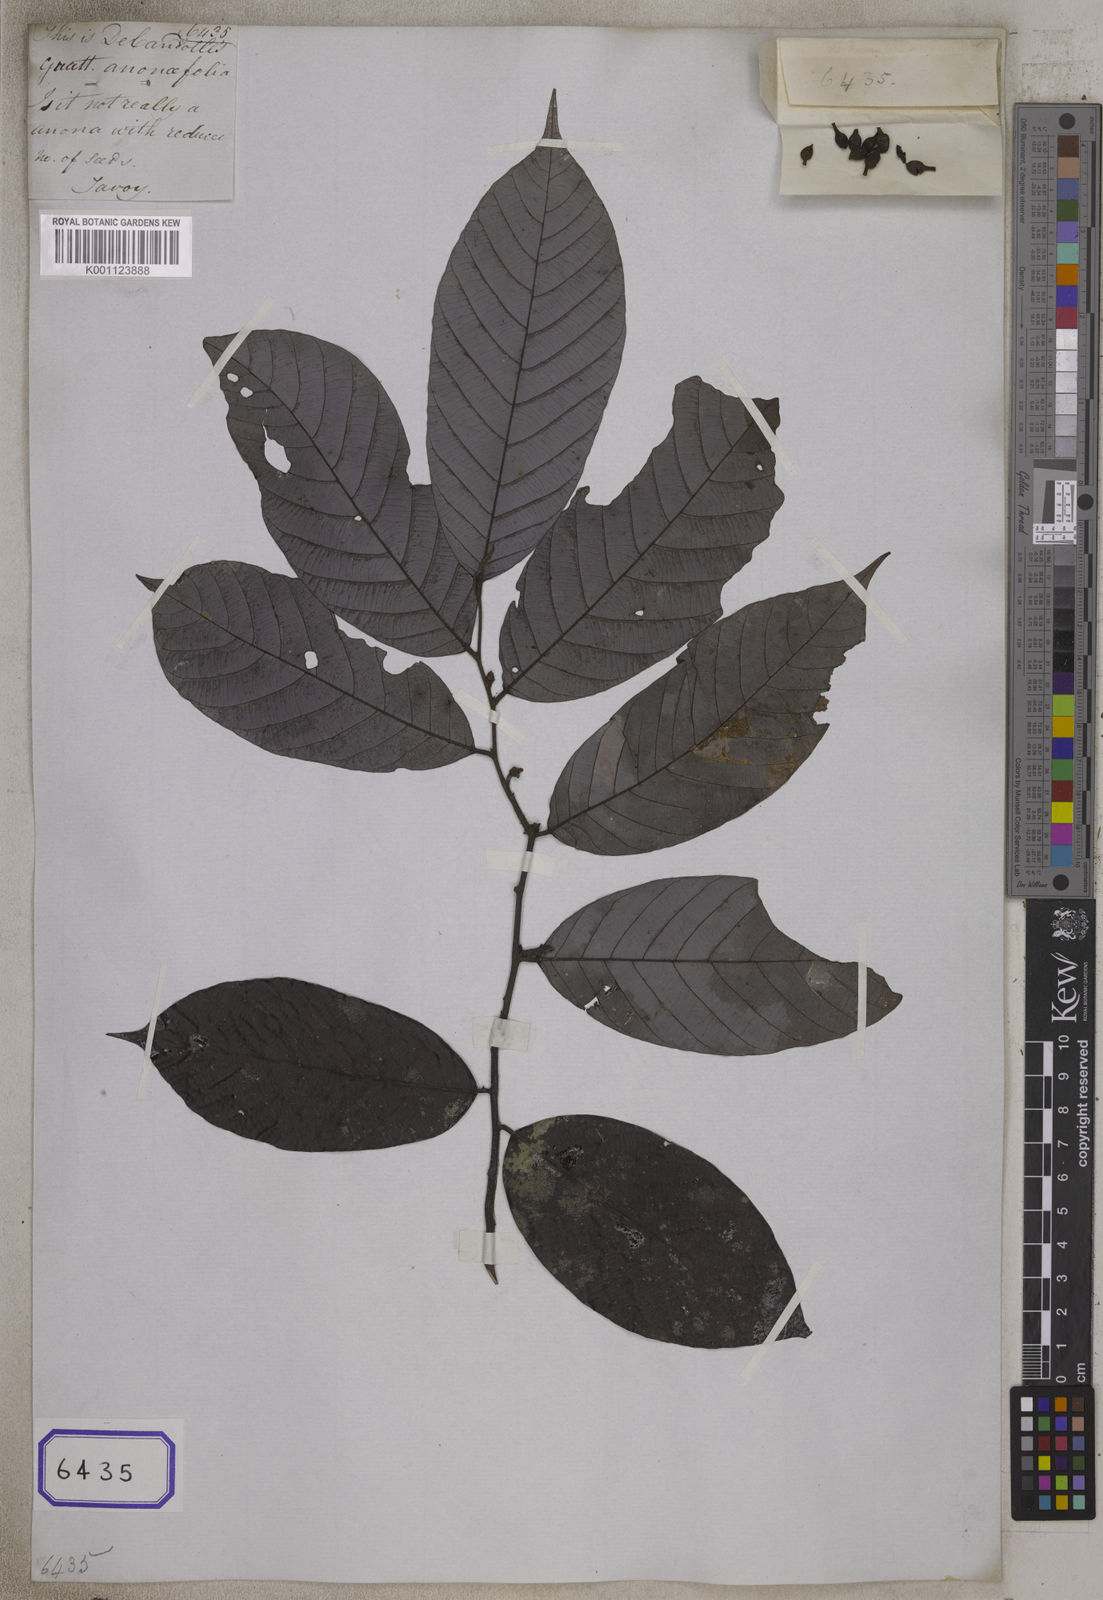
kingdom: Plantae
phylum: Tracheophyta
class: Magnoliopsida
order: Magnoliales
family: Annonaceae
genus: Guatteria
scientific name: Guatteria
